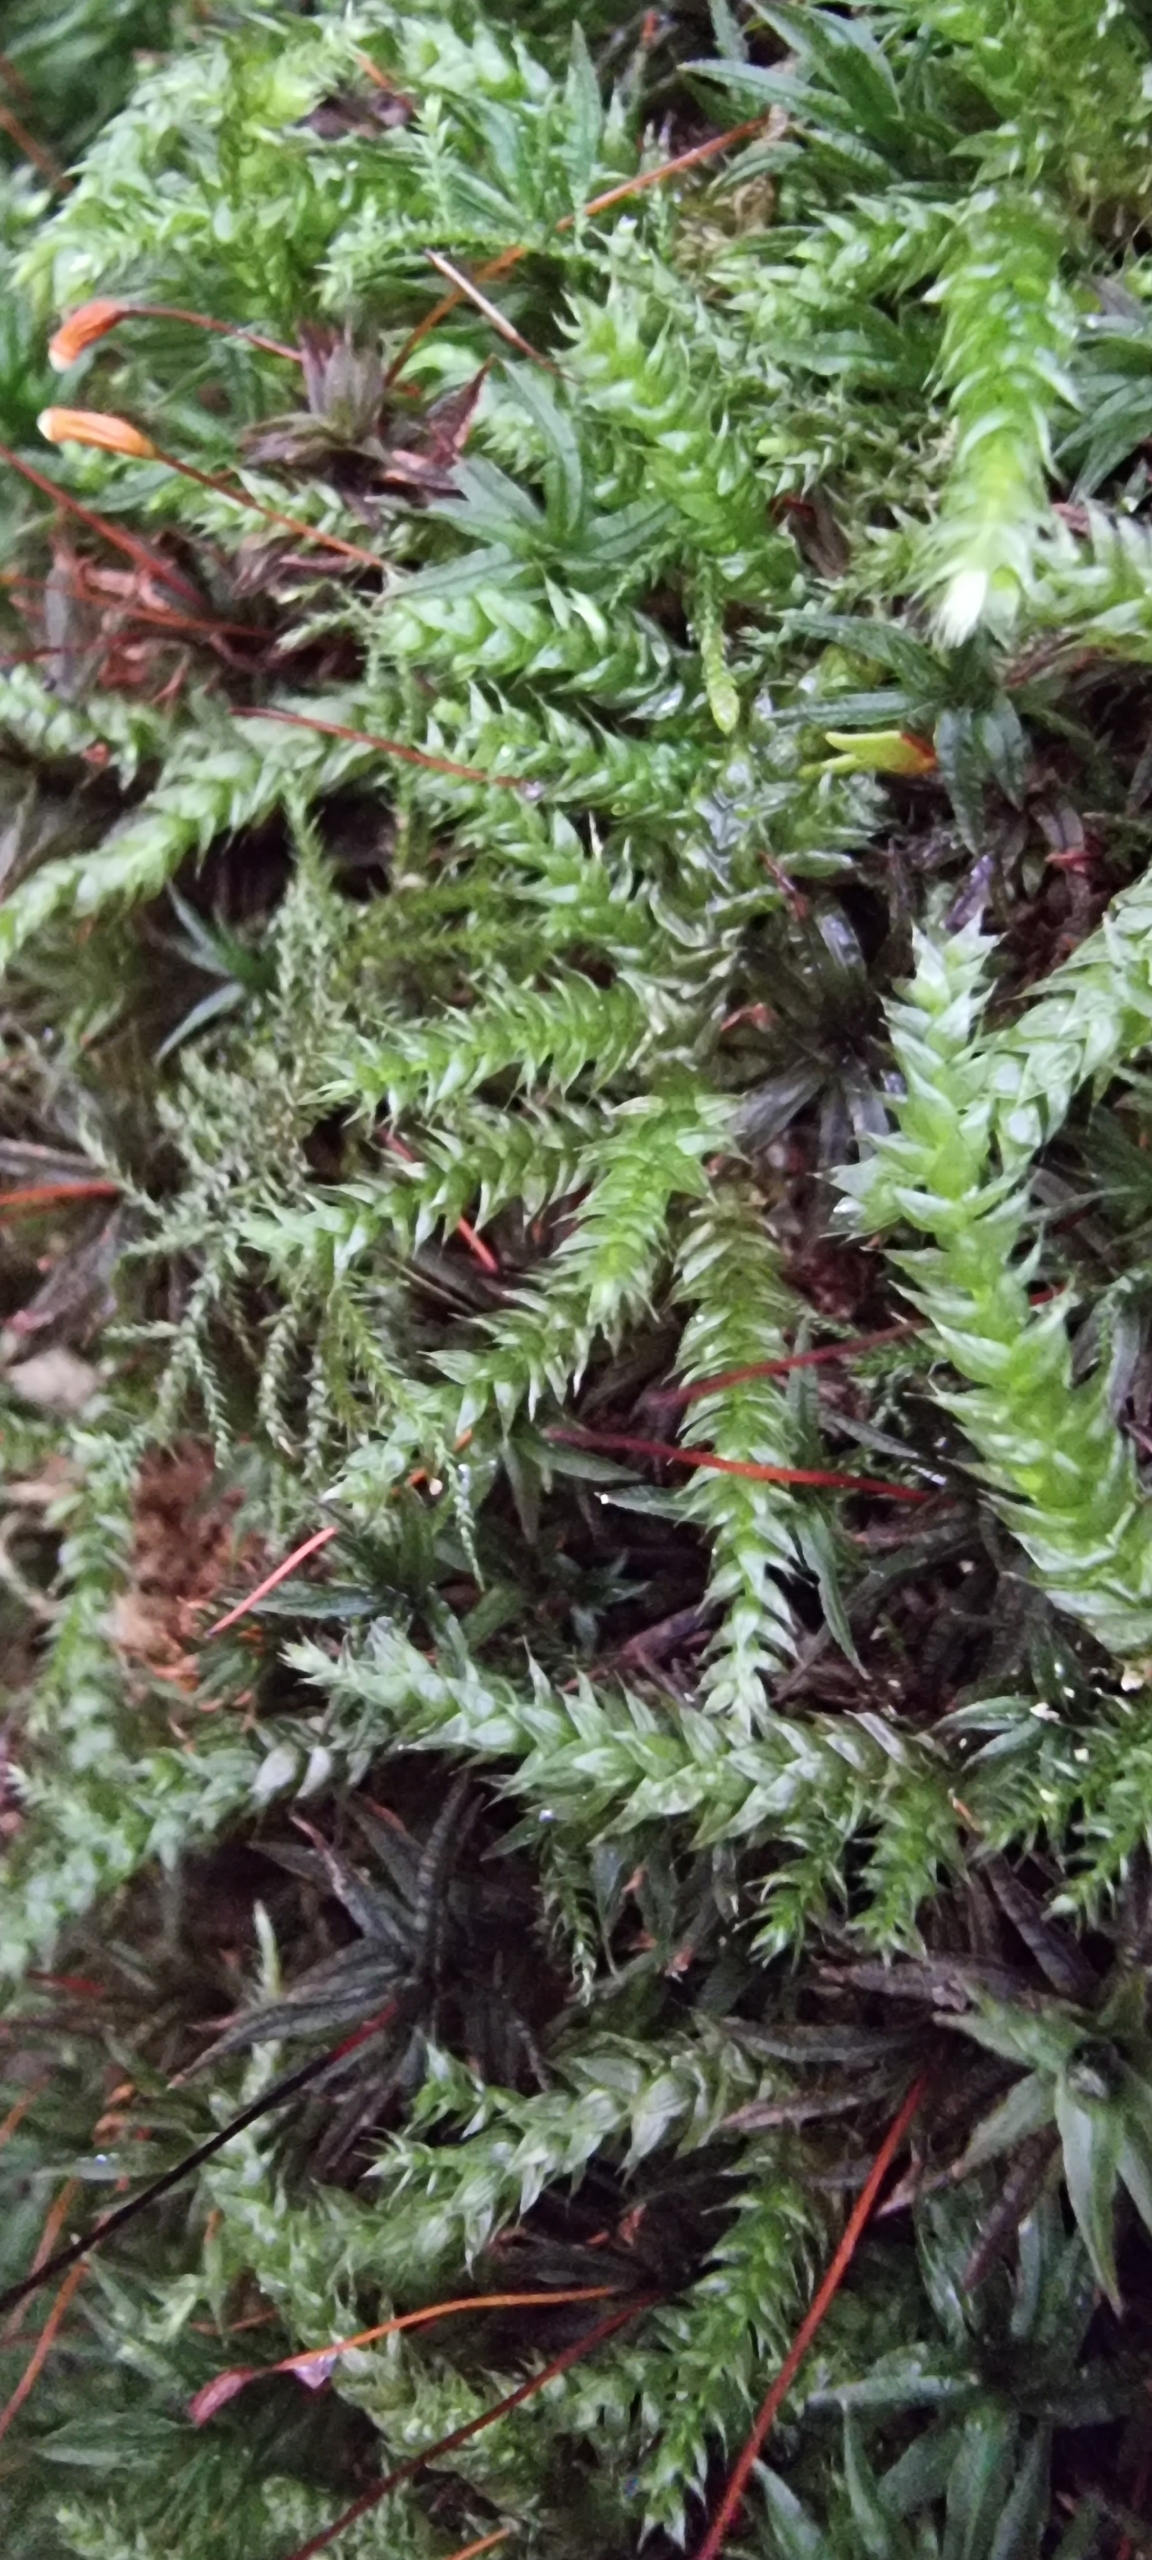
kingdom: Plantae
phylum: Bryophyta
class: Bryopsida
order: Hypnales
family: Brachytheciaceae
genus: Brachythecium
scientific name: Brachythecium
